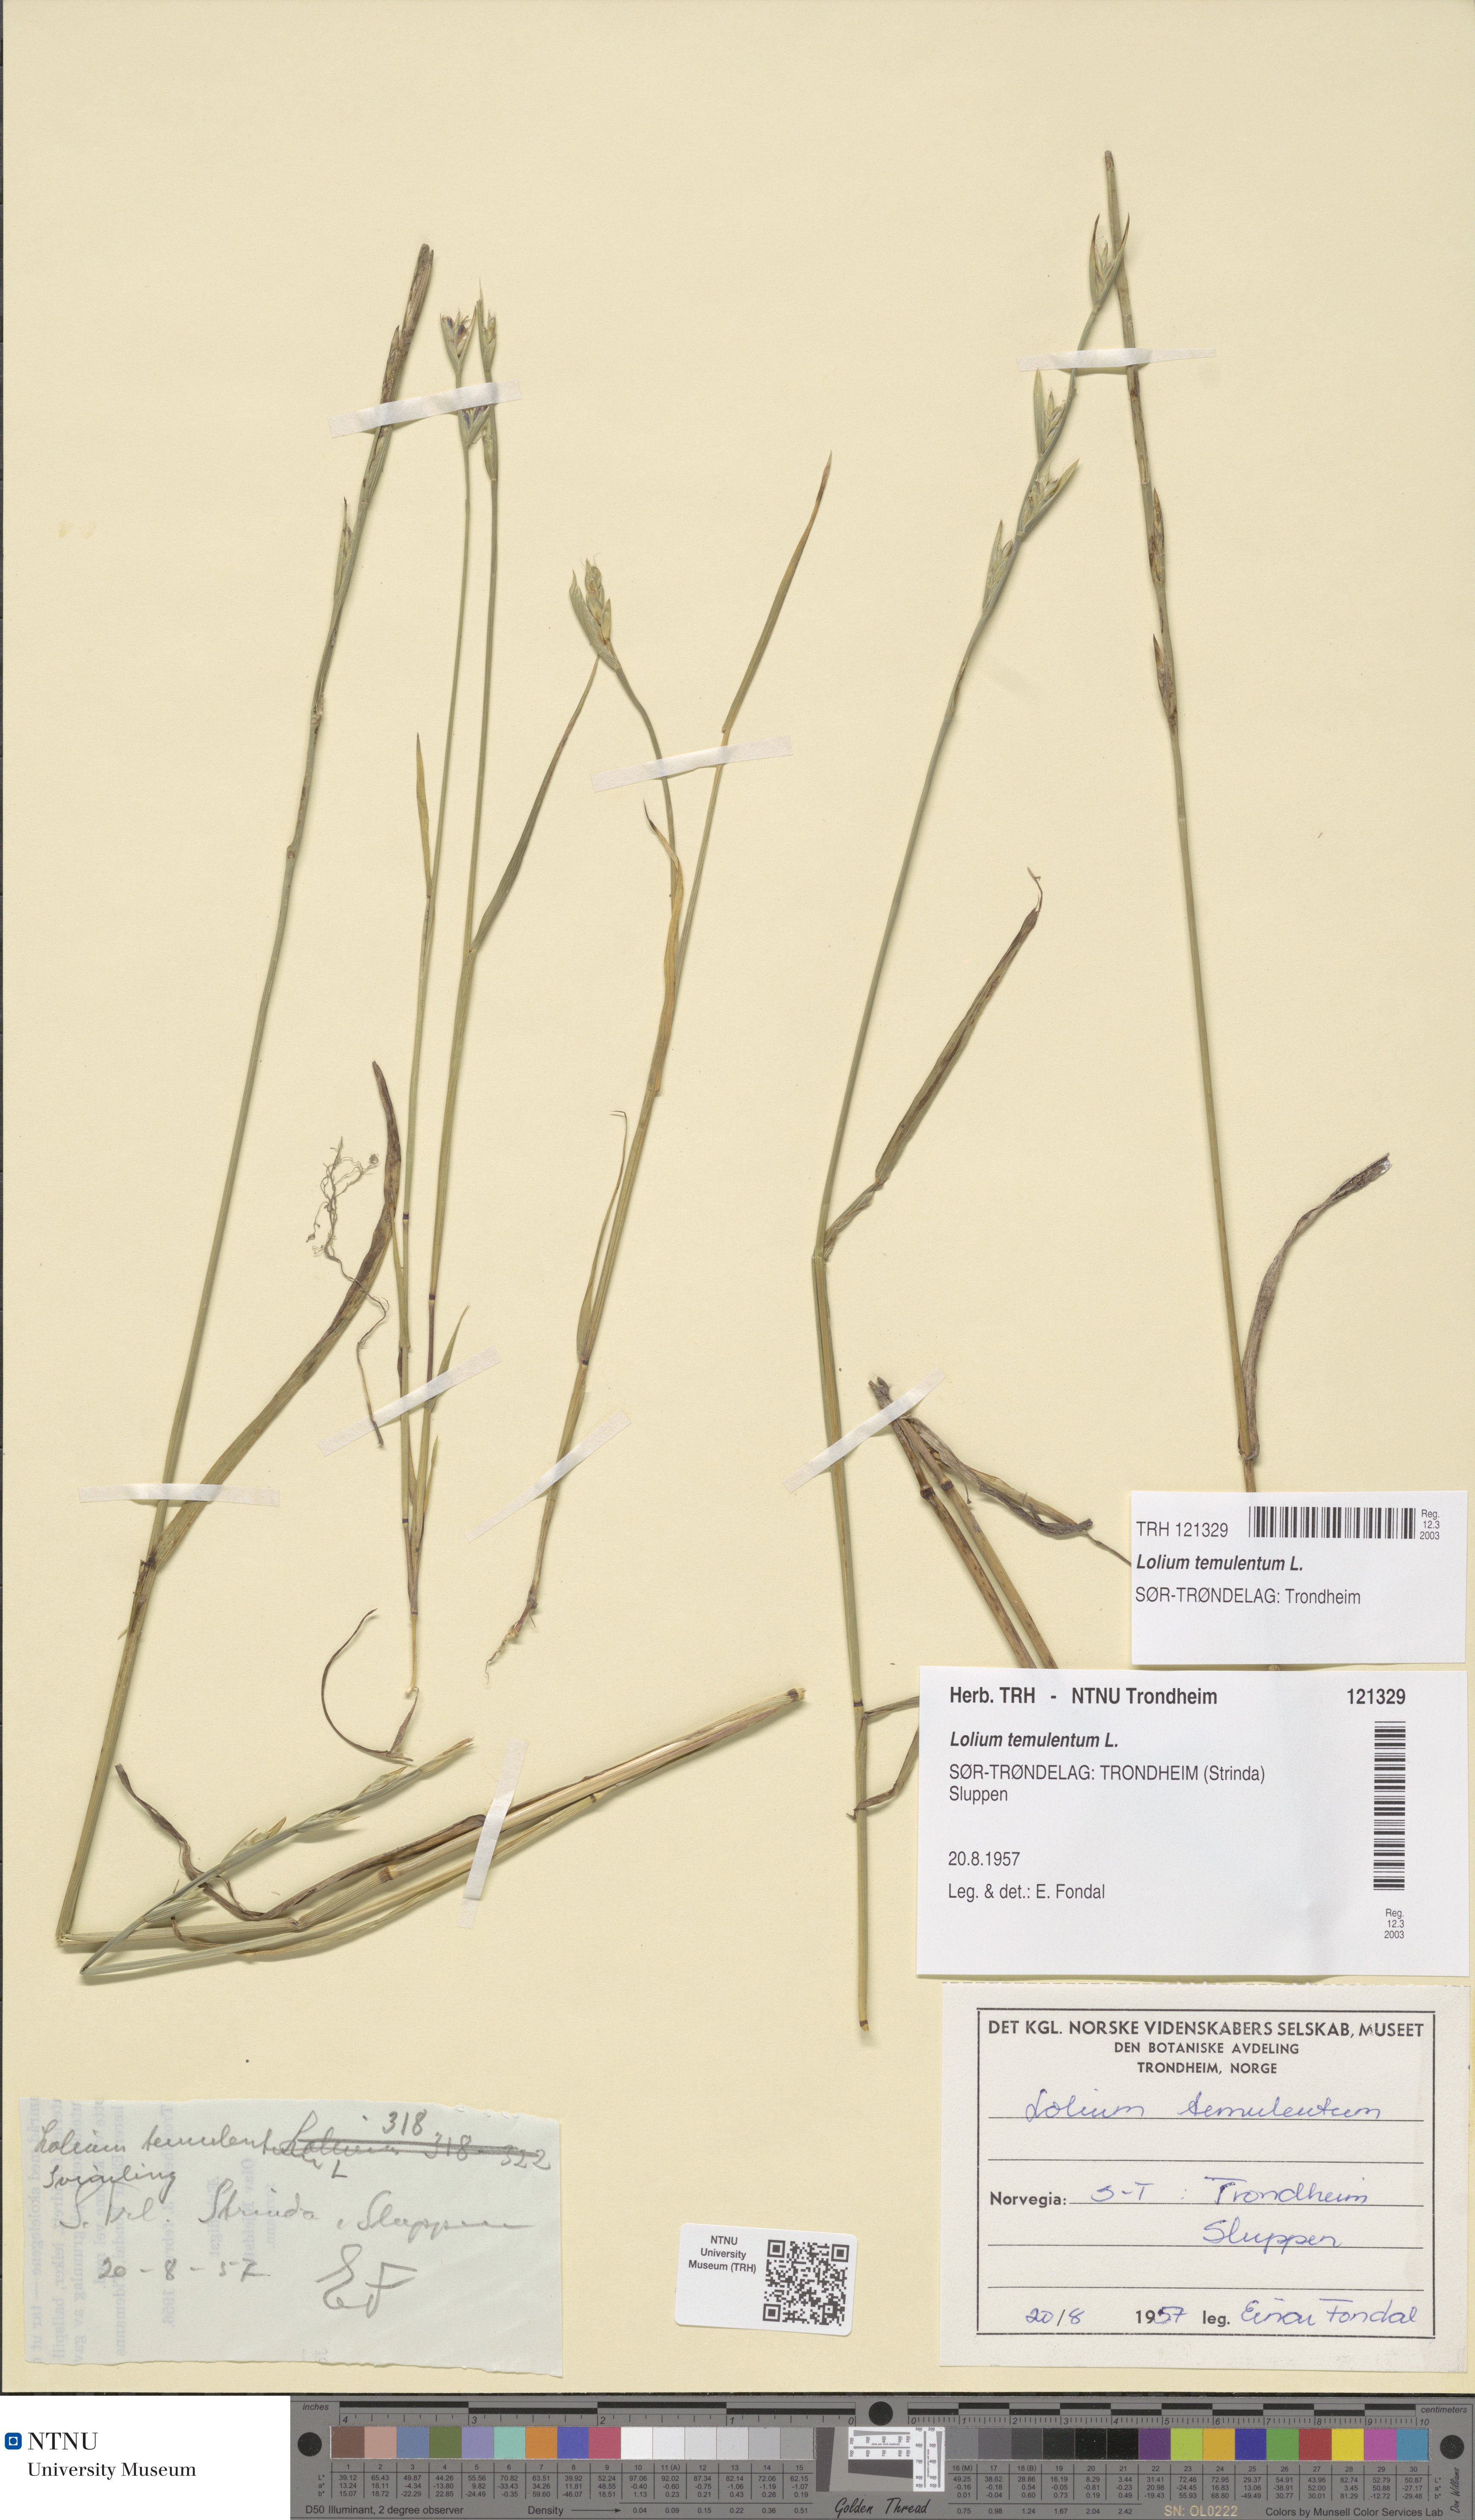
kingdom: Plantae
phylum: Tracheophyta
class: Liliopsida
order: Poales
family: Poaceae
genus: Lolium
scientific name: Lolium temulentum
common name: Darnel
